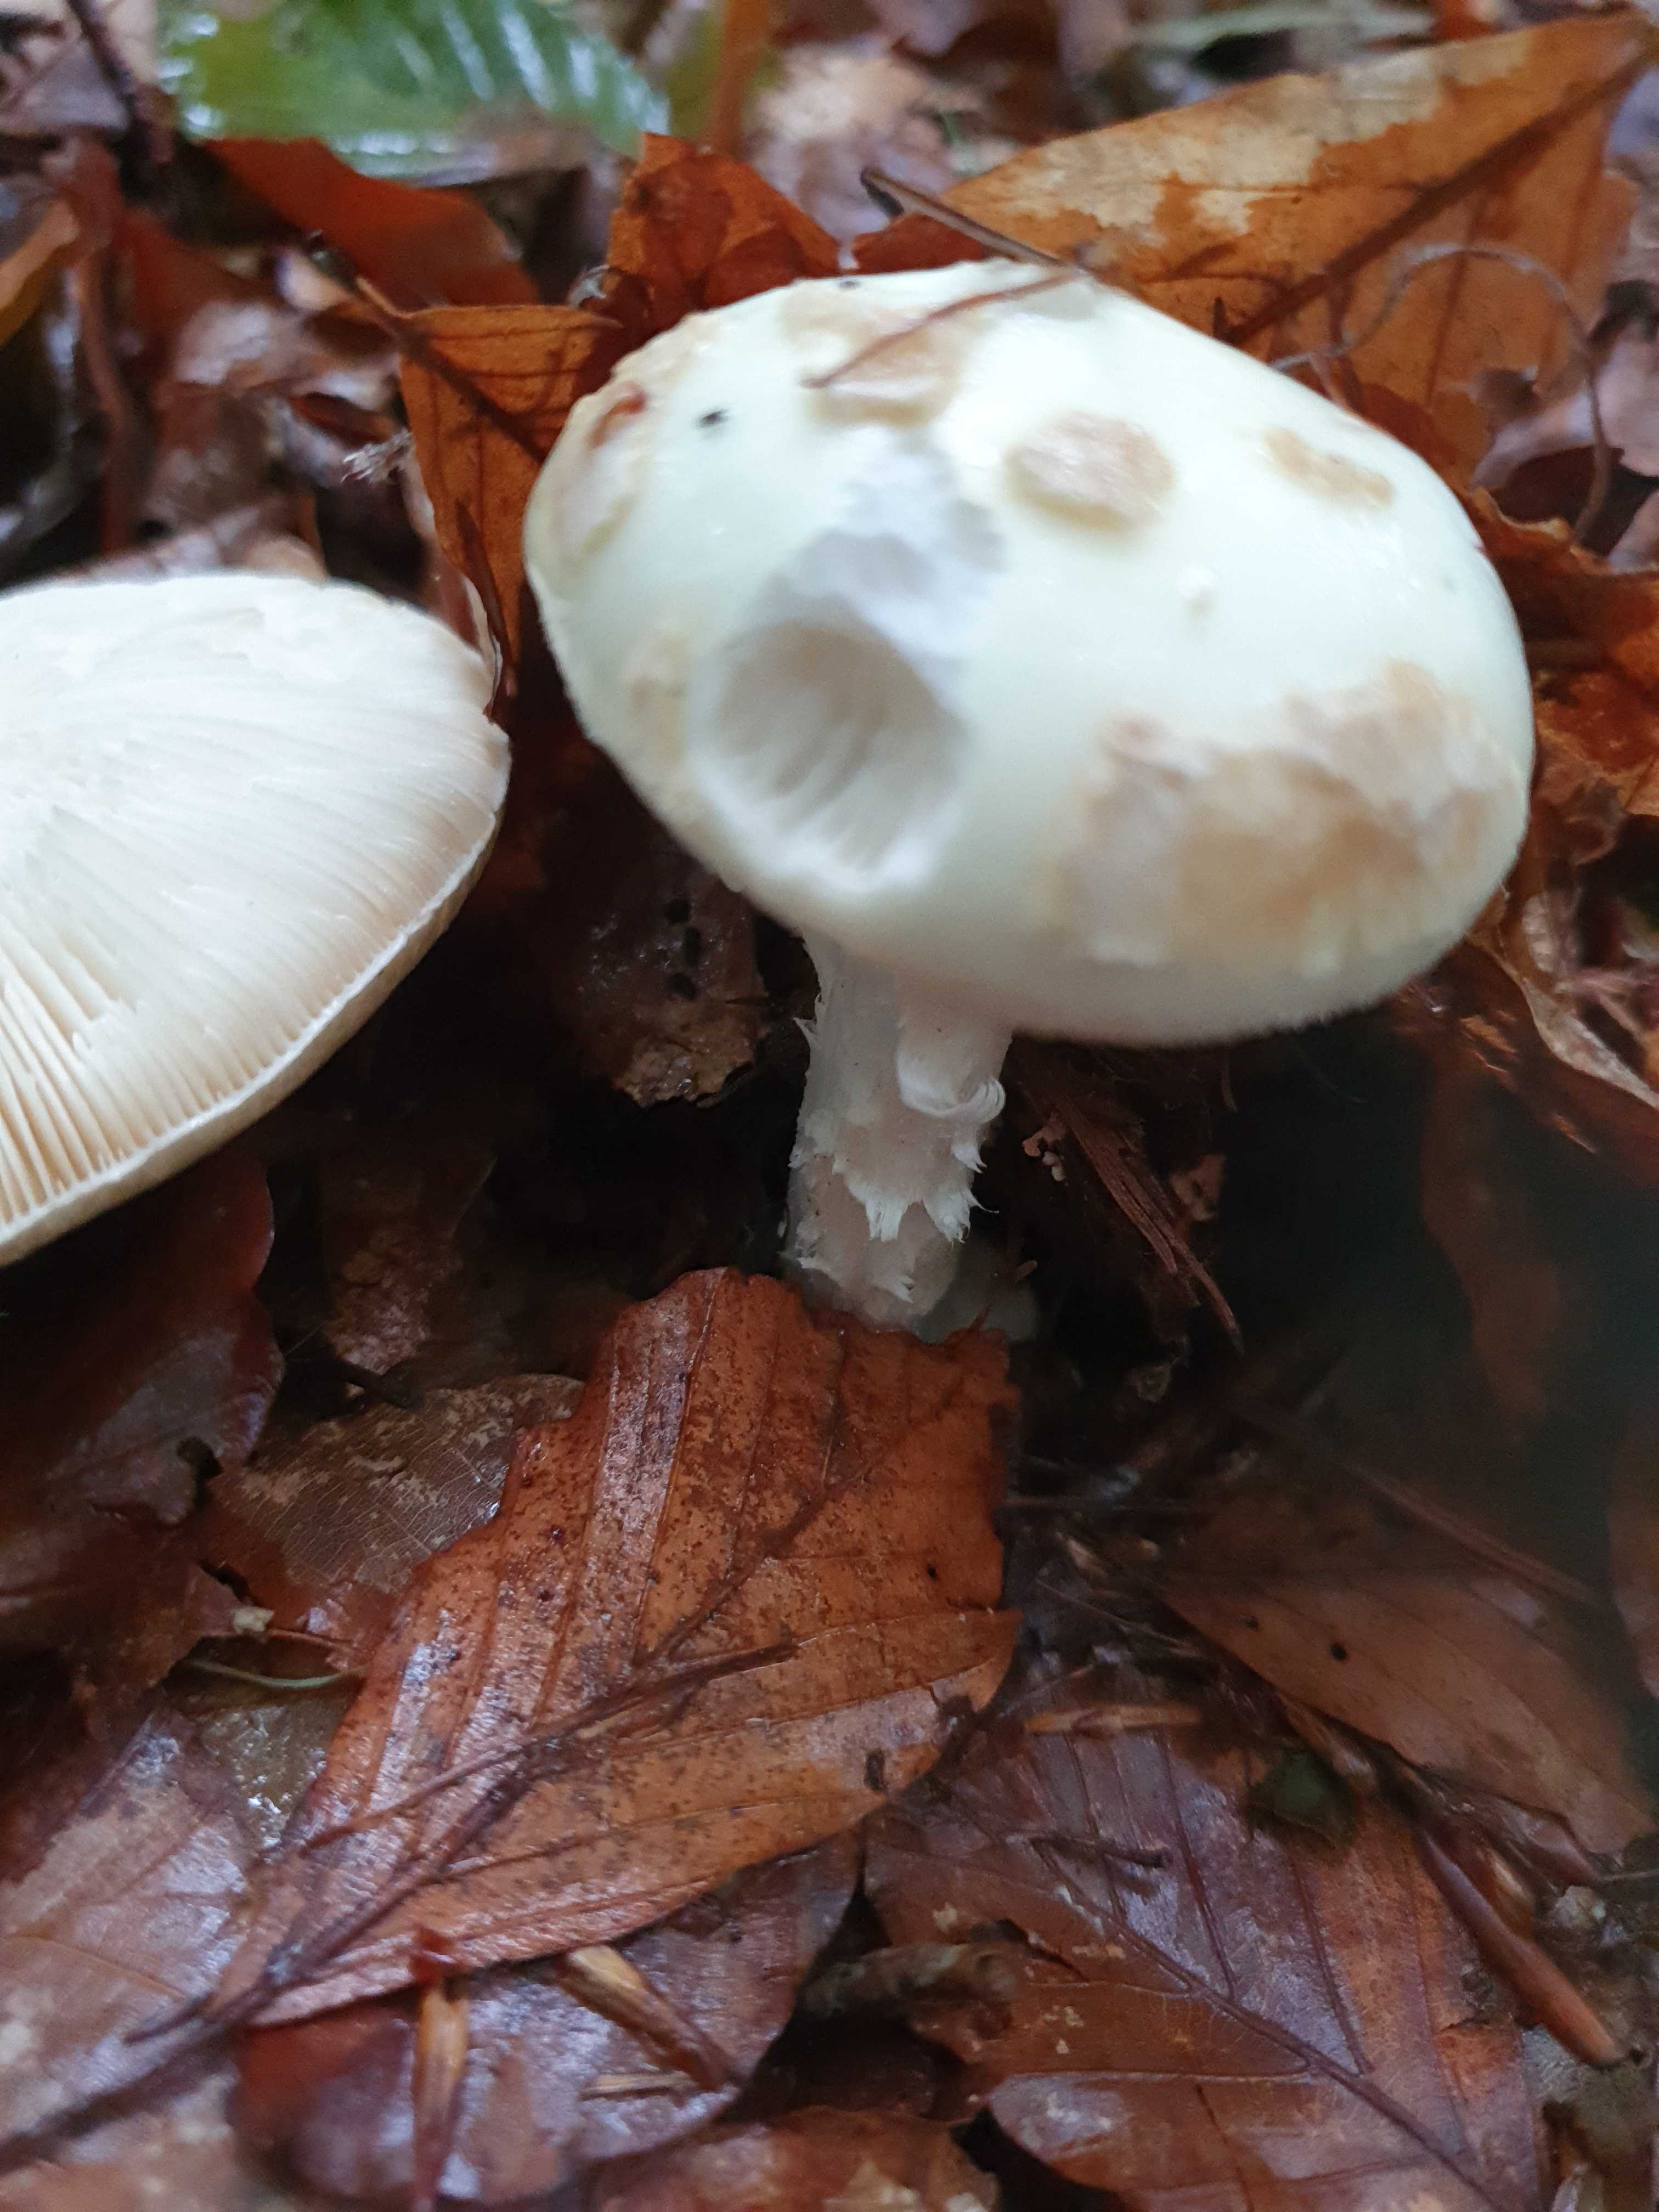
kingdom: Fungi
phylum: Basidiomycota
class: Agaricomycetes
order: Agaricales
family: Amanitaceae
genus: Amanita
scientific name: Amanita citrina
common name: kugleknoldet fluesvamp
